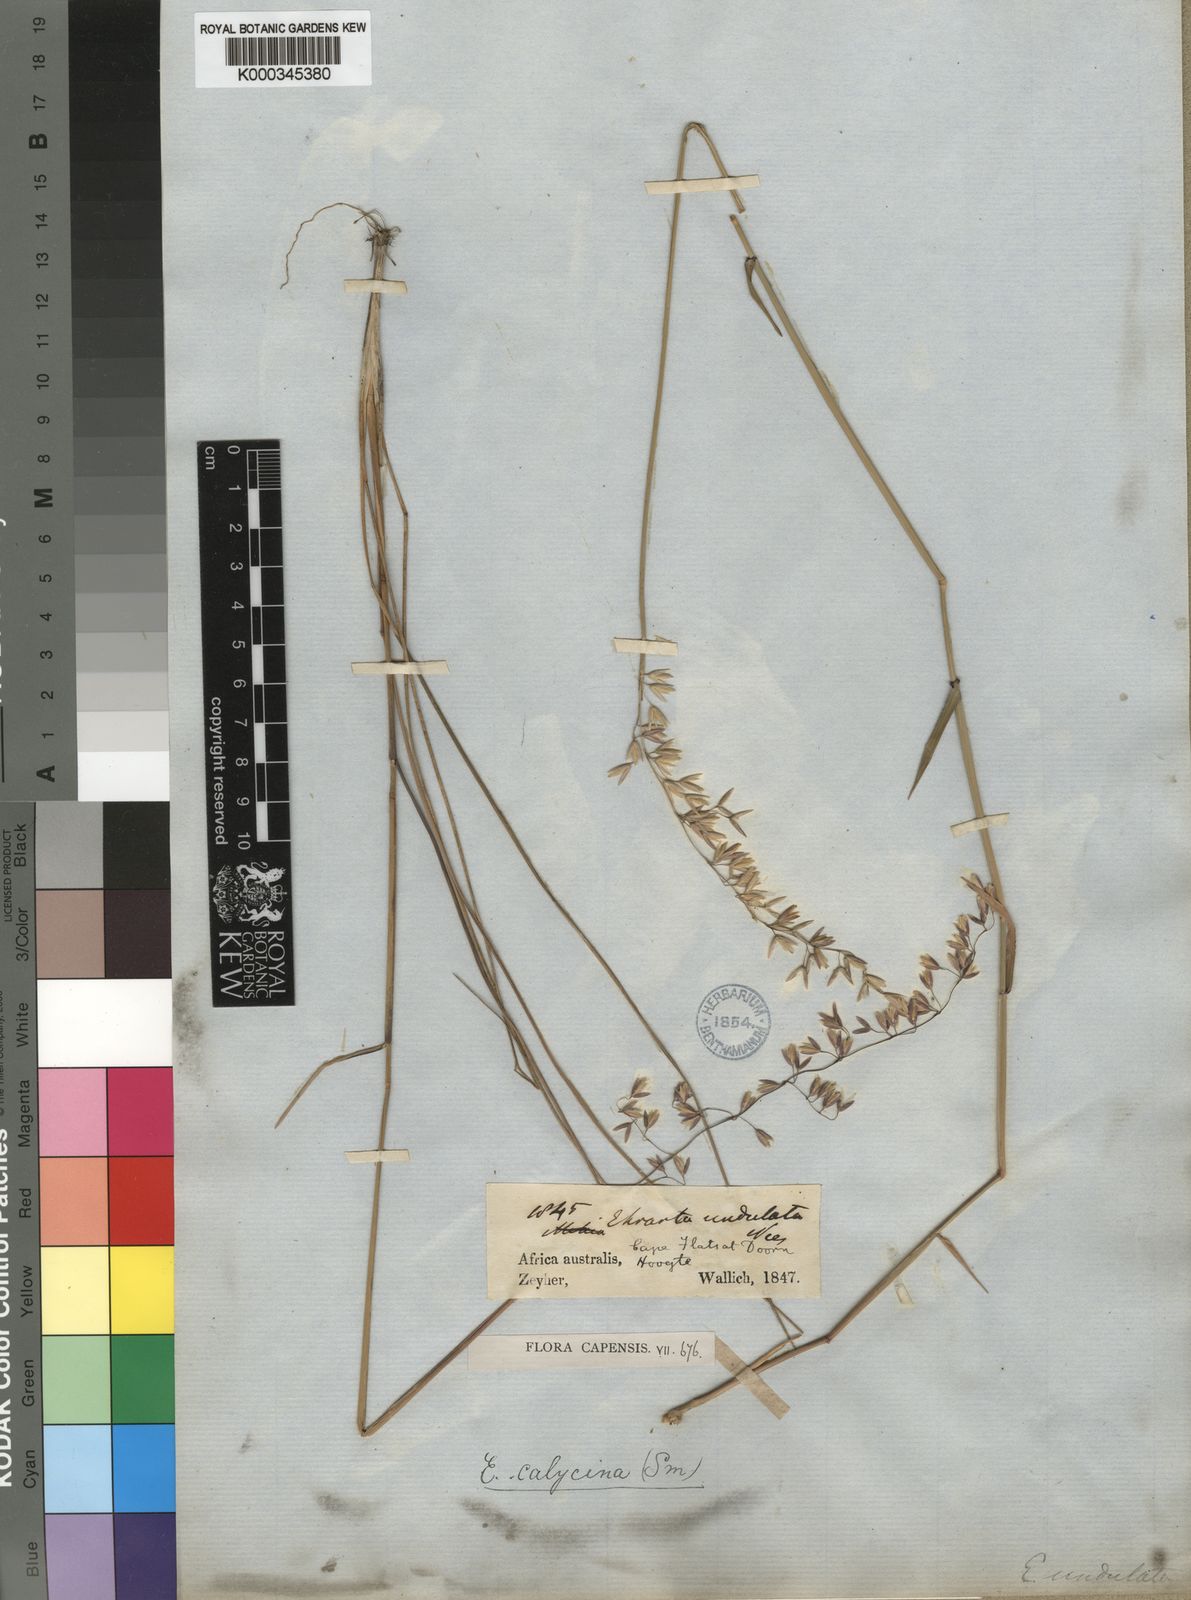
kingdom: Plantae
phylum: Tracheophyta
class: Liliopsida
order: Poales
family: Poaceae
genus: Ehrharta
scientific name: Ehrharta calycina
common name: Perennial veldtgrass
